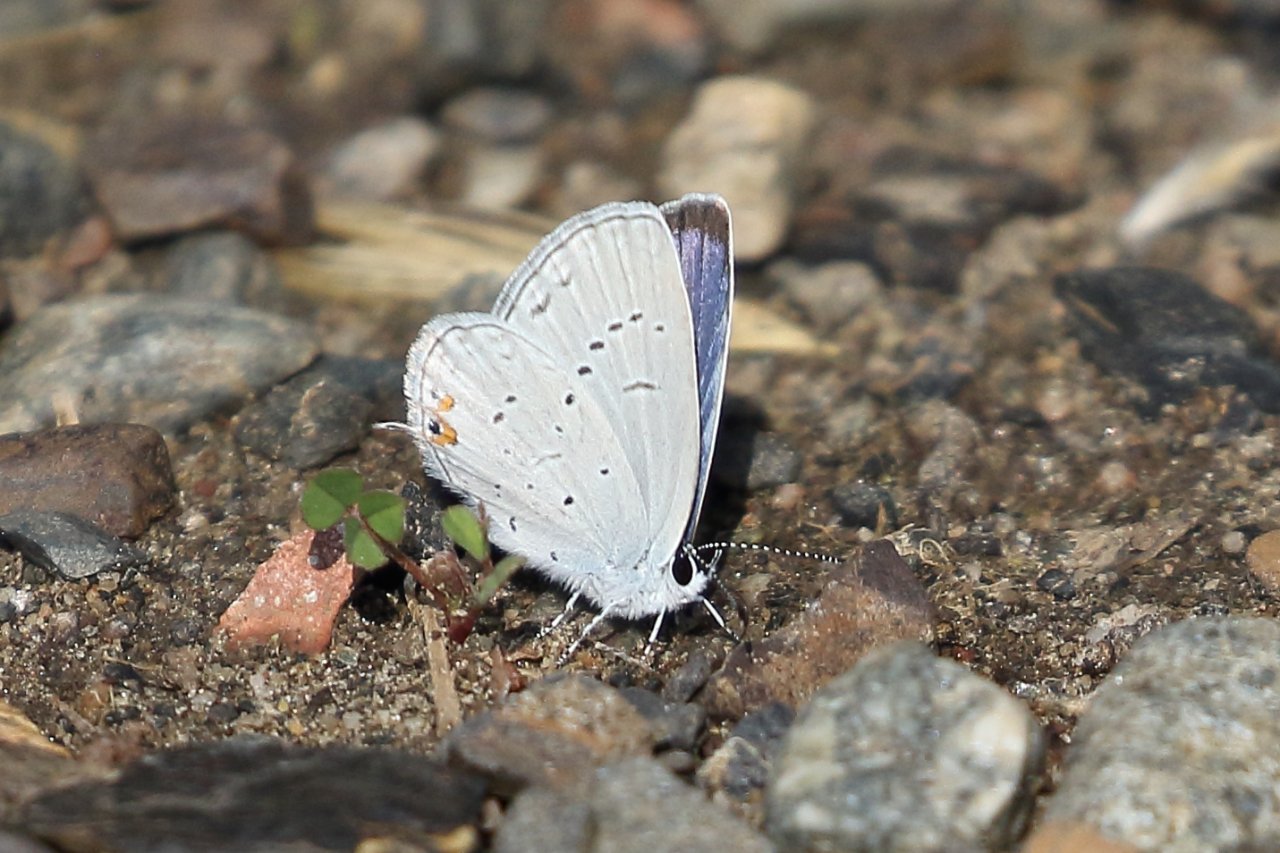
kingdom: Animalia
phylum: Arthropoda
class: Insecta
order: Lepidoptera
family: Lycaenidae
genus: Elkalyce
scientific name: Elkalyce comyntas
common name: Eastern Tailed-Blue
